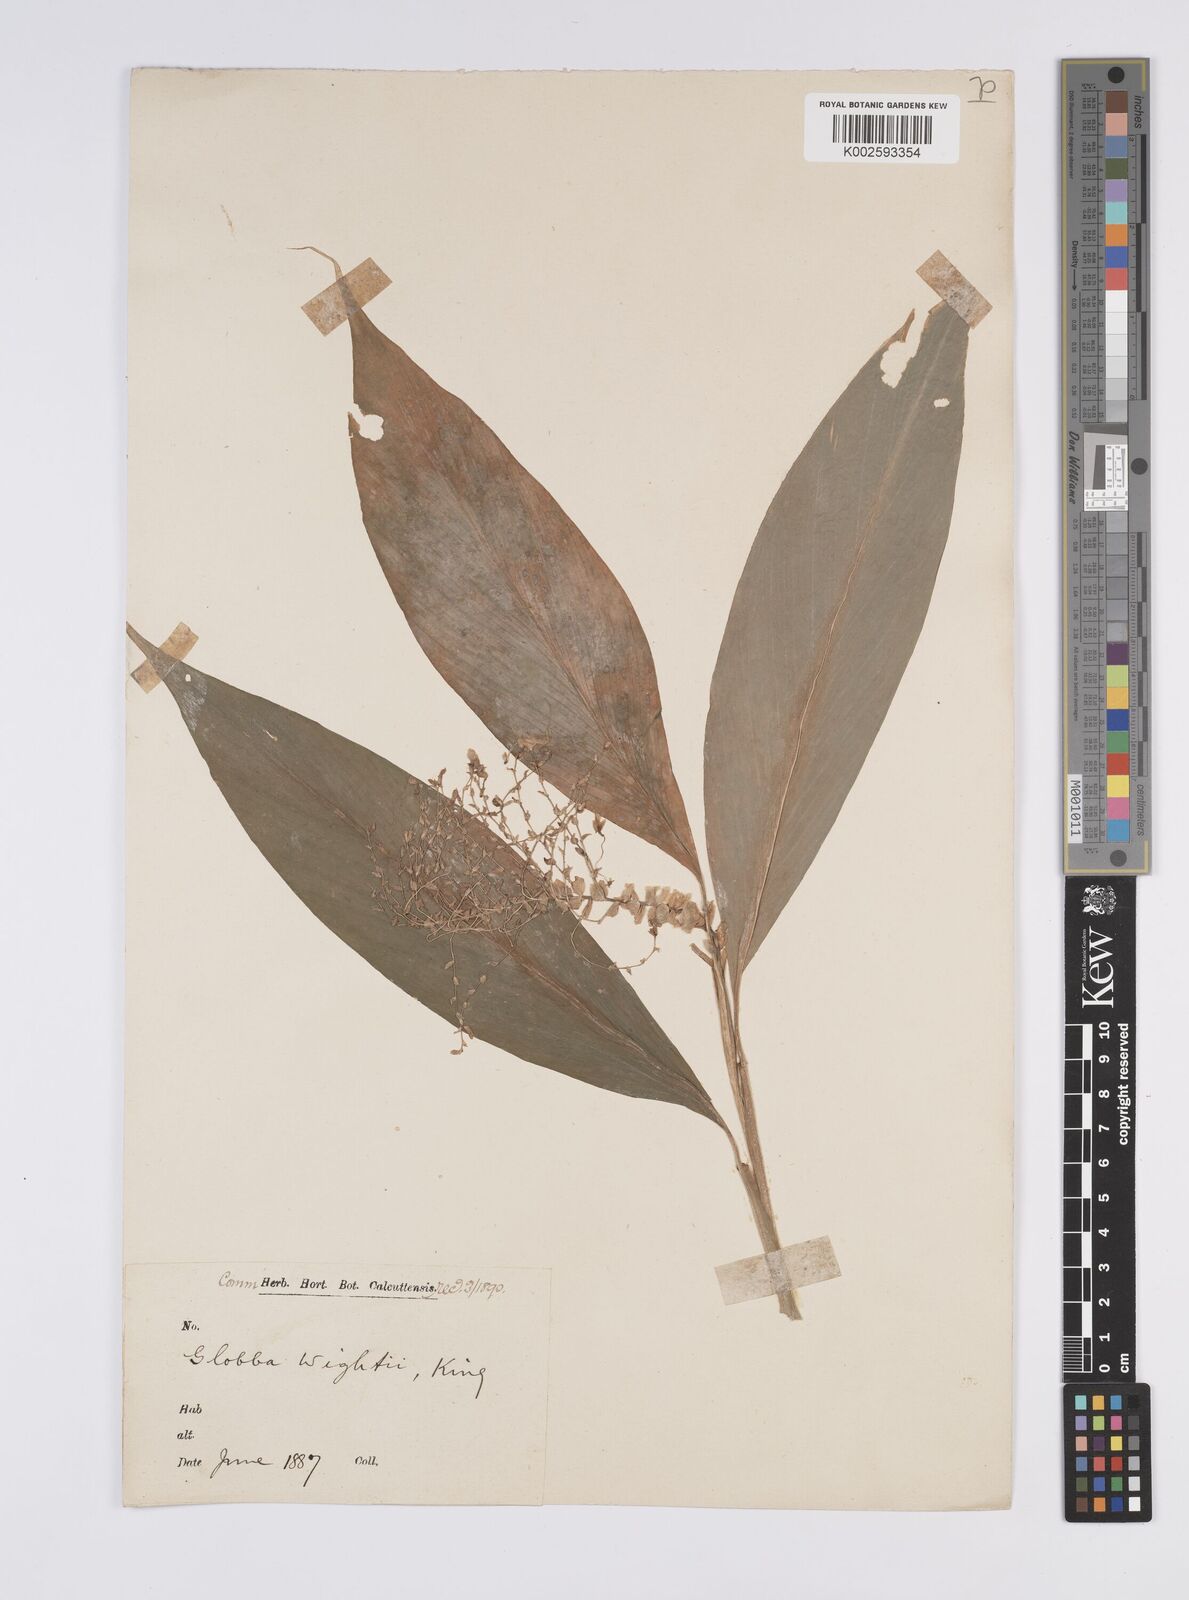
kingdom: Plantae
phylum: Tracheophyta
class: Liliopsida
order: Zingiberales
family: Zingiberaceae
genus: Globba
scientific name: Globba schomburgkii
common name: Dancing girl ginger
